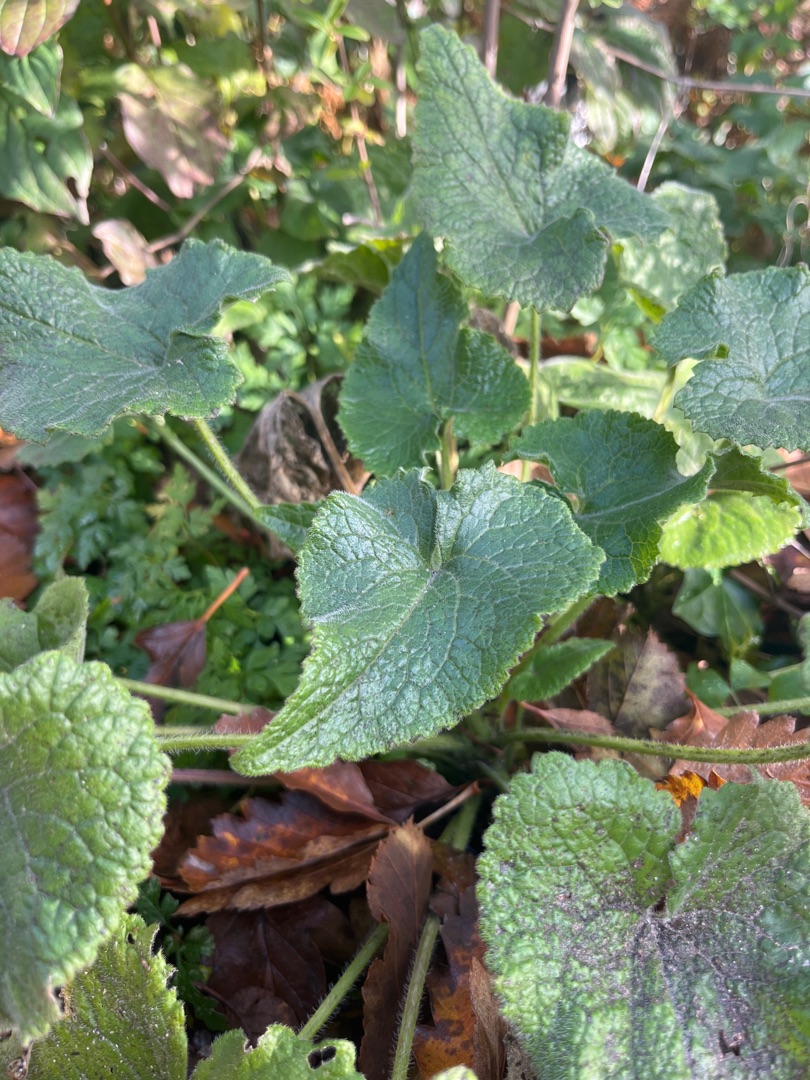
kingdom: Plantae
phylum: Tracheophyta
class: Magnoliopsida
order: Brassicales
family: Brassicaceae
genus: Lunaria
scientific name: Lunaria annua
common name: Judaspenge
